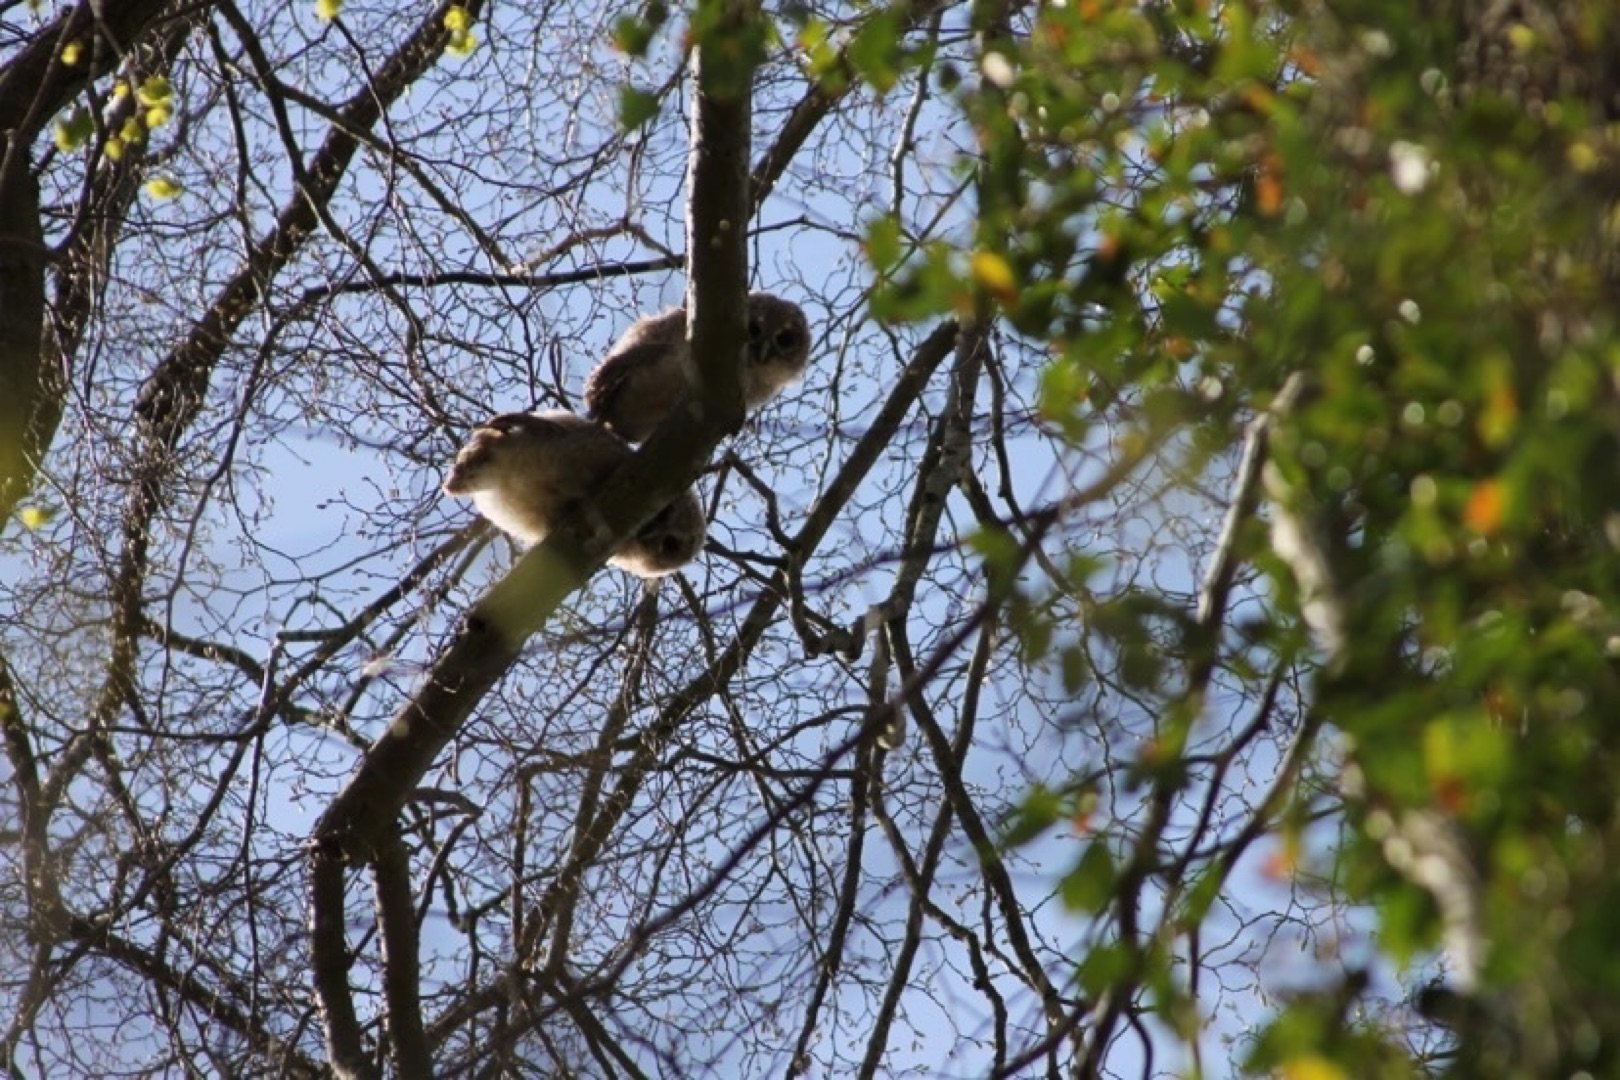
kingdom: Animalia
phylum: Chordata
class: Aves
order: Strigiformes
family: Strigidae
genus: Strix
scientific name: Strix aluco
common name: Natugle
